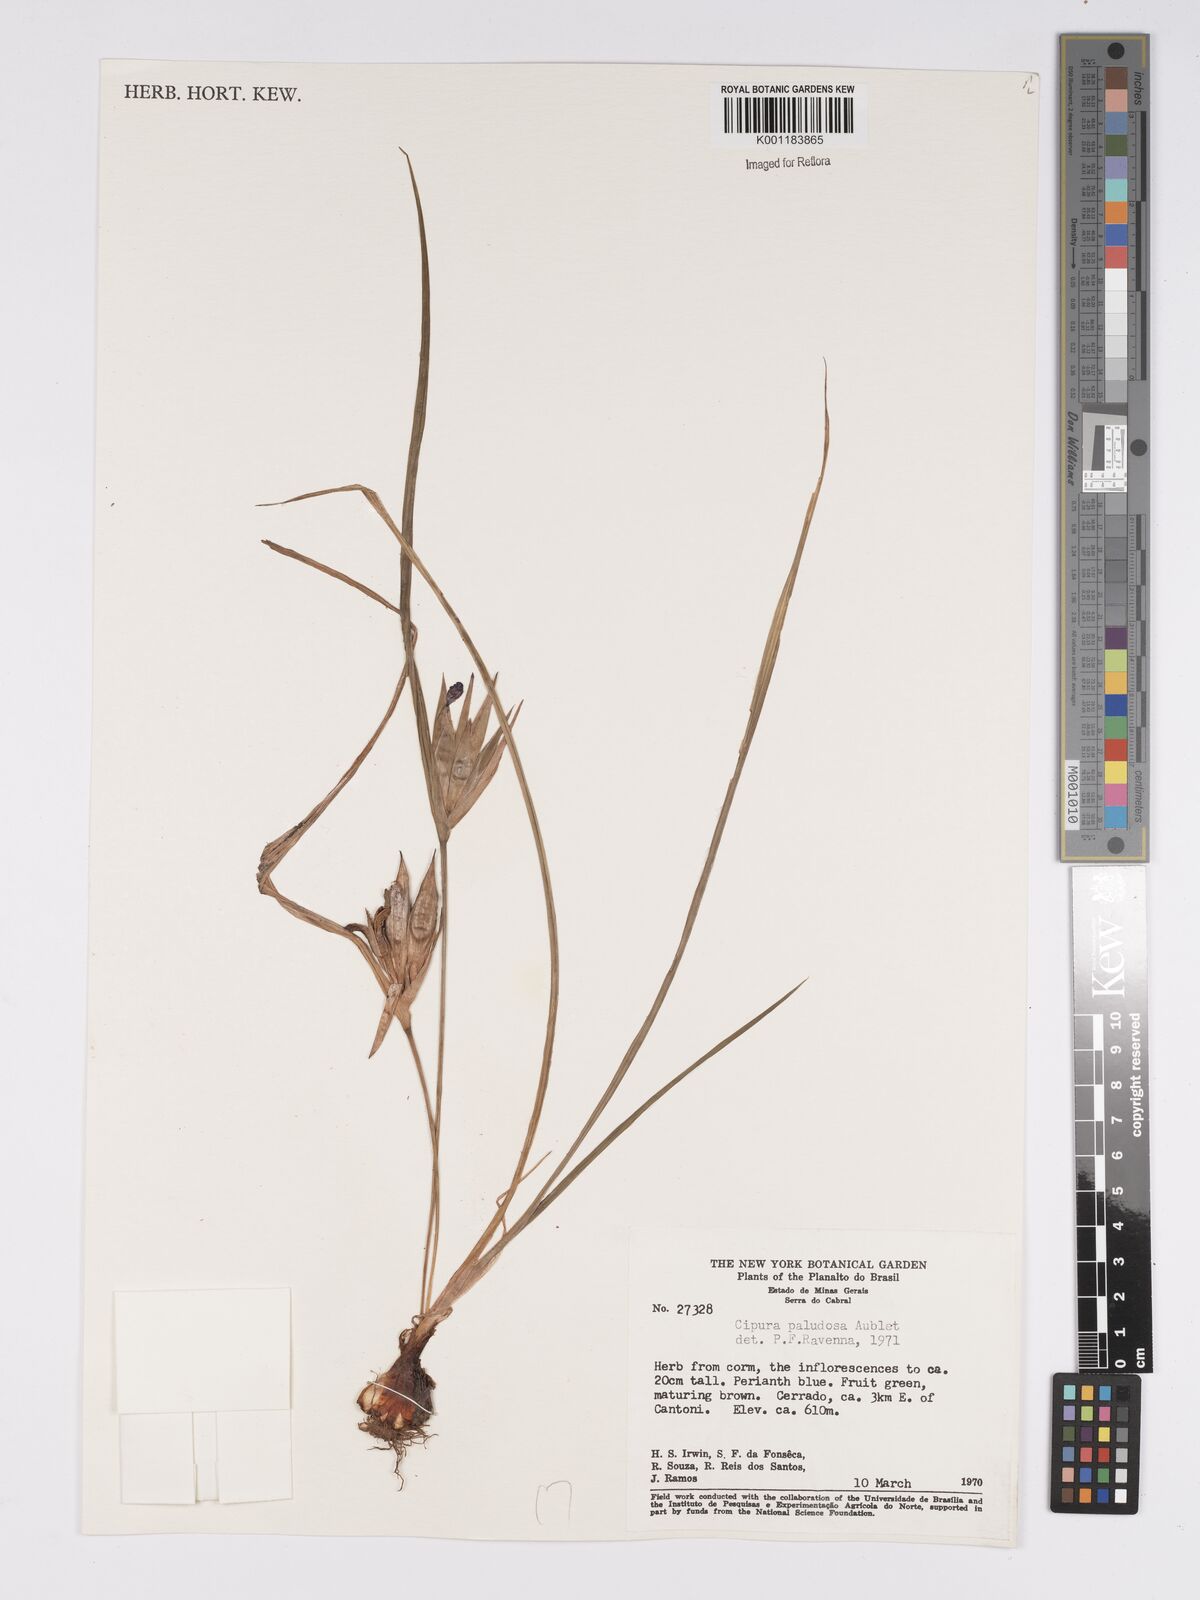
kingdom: Plantae
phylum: Tracheophyta
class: Liliopsida
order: Asparagales
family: Iridaceae
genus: Cipura
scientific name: Cipura paludosa
